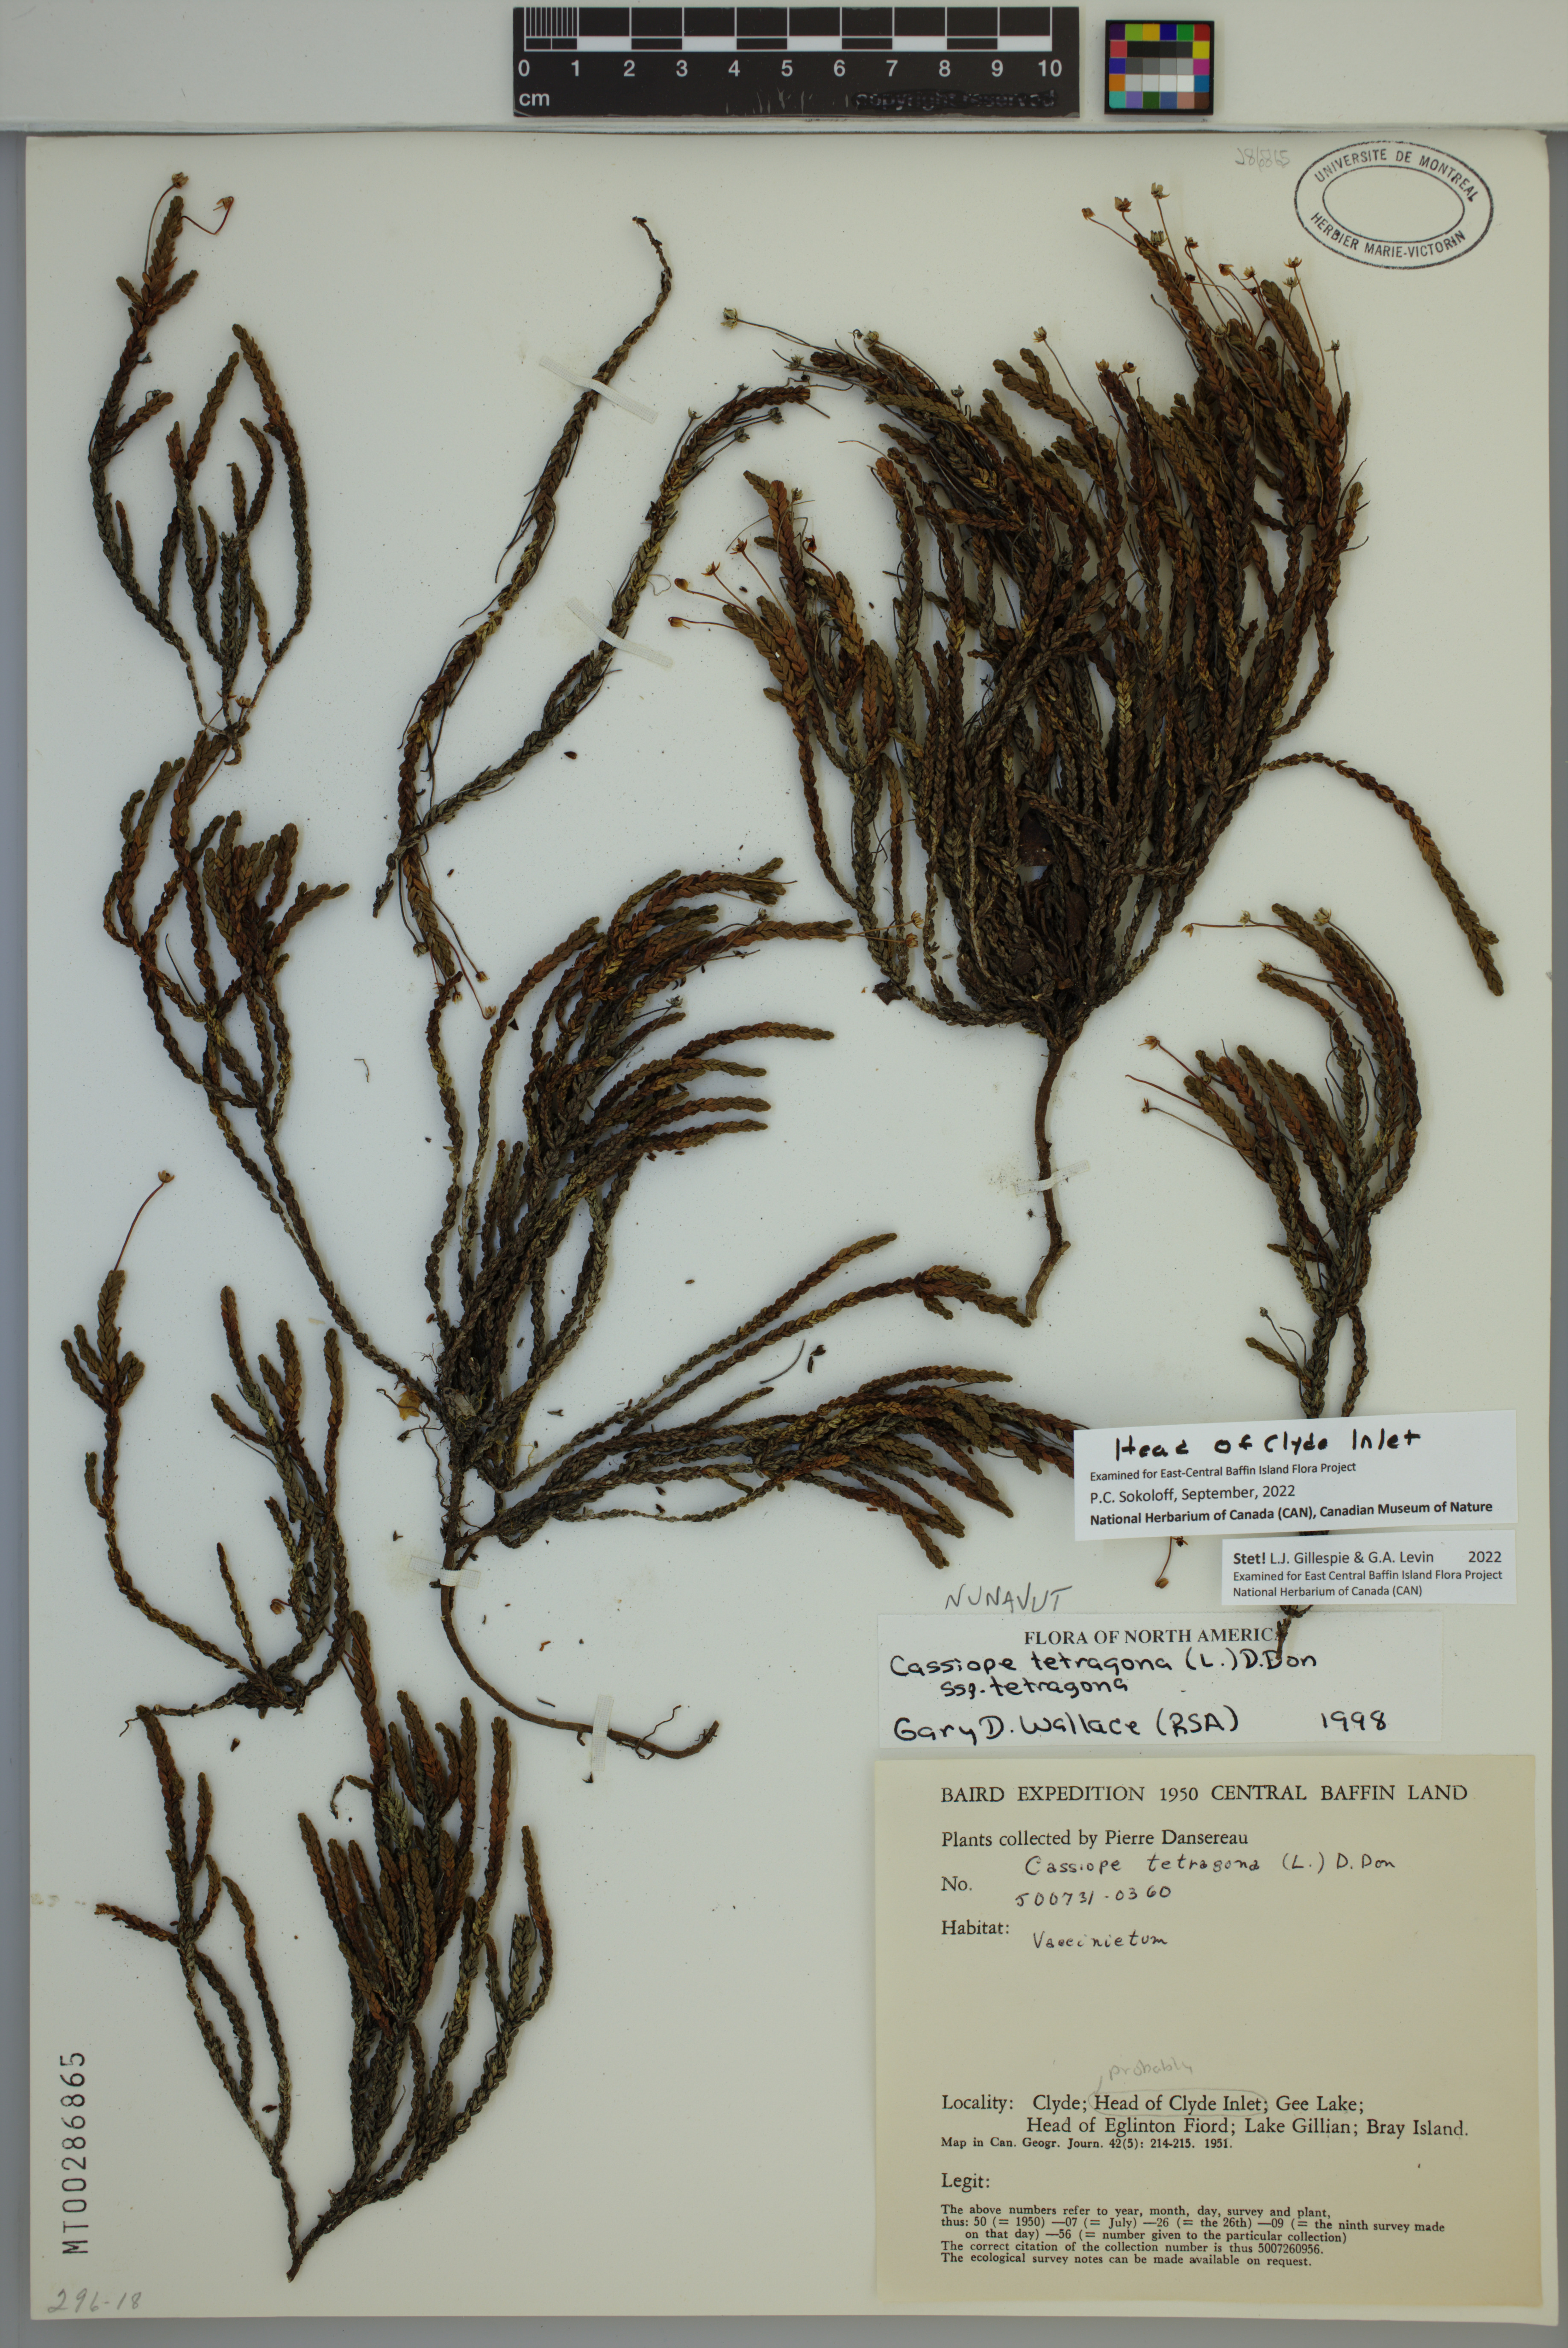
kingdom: Plantae
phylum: Tracheophyta
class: Magnoliopsida
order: Ericales
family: Ericaceae
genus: Cassiope
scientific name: Cassiope tetragona
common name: Arctic bell heather
